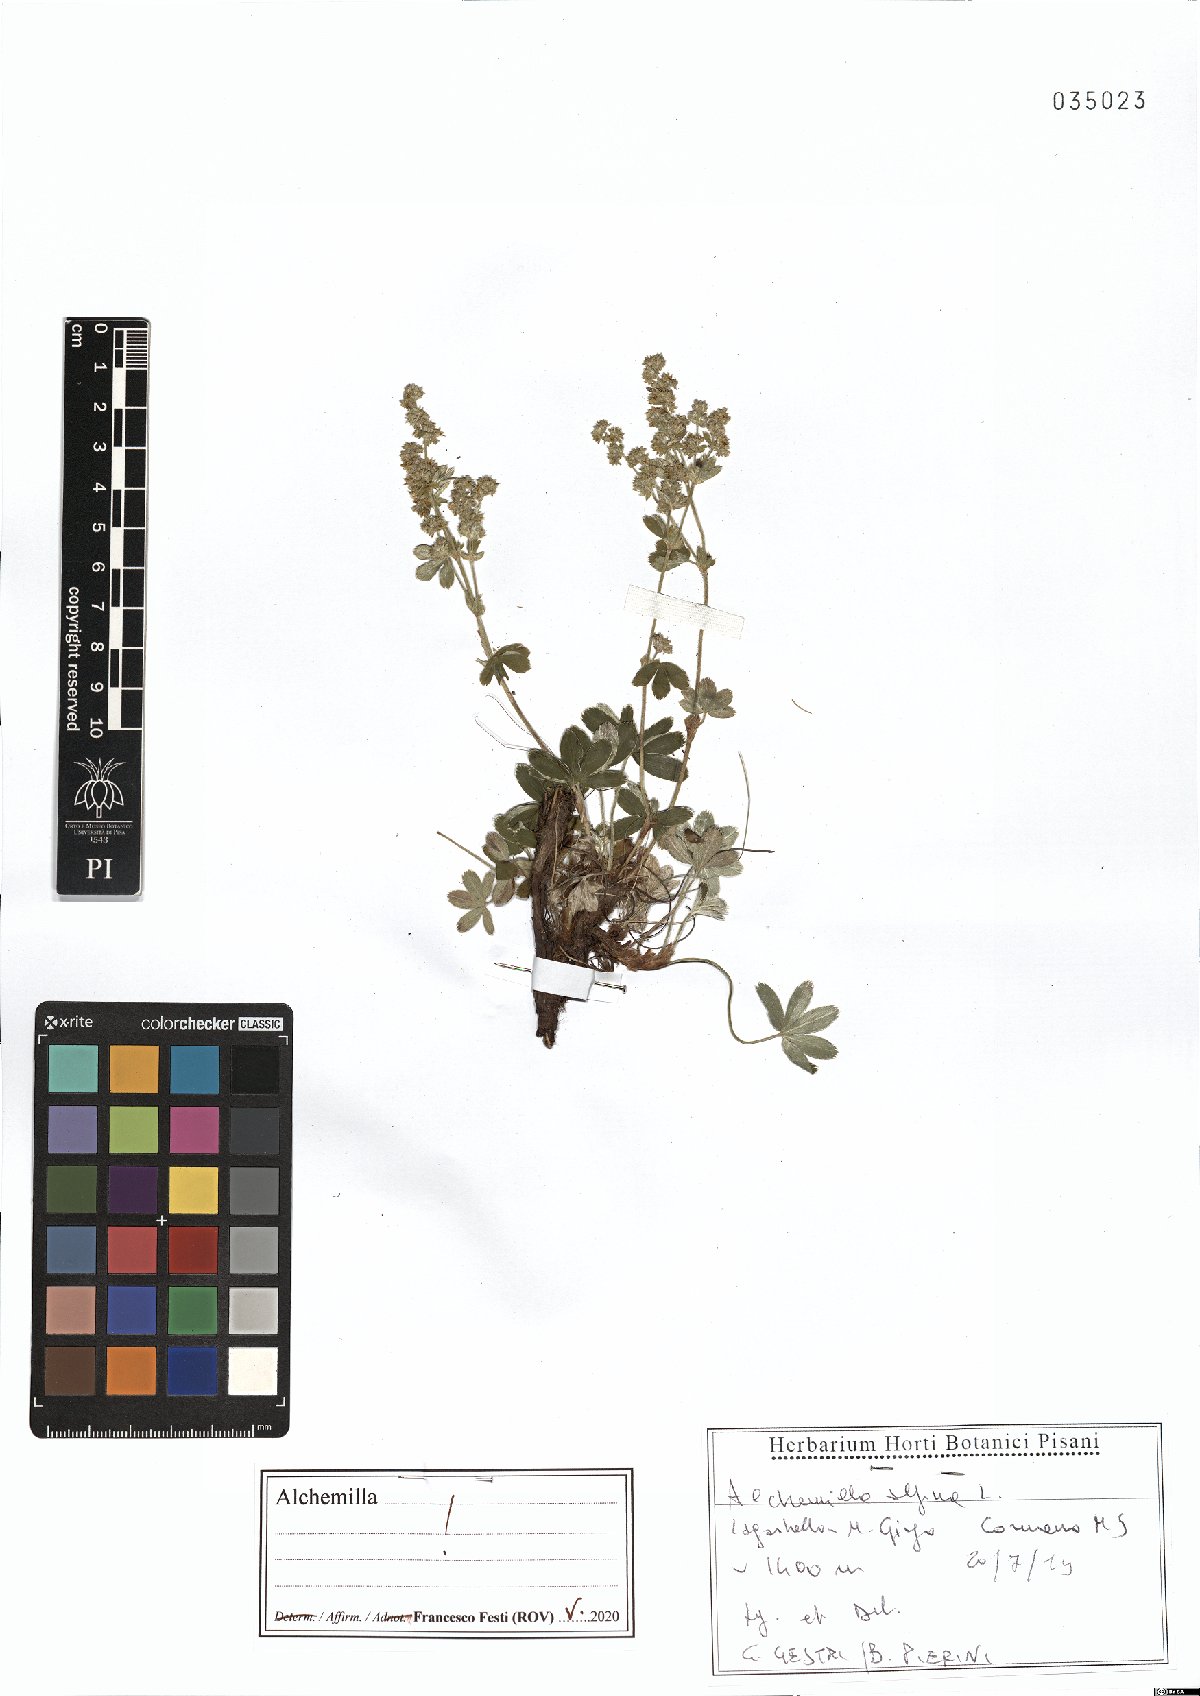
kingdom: Plantae
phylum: Tracheophyta
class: Magnoliopsida
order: Rosales
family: Rosaceae
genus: Alchemilla
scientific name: Alchemilla alpina
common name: Alpine lady's-mantle
